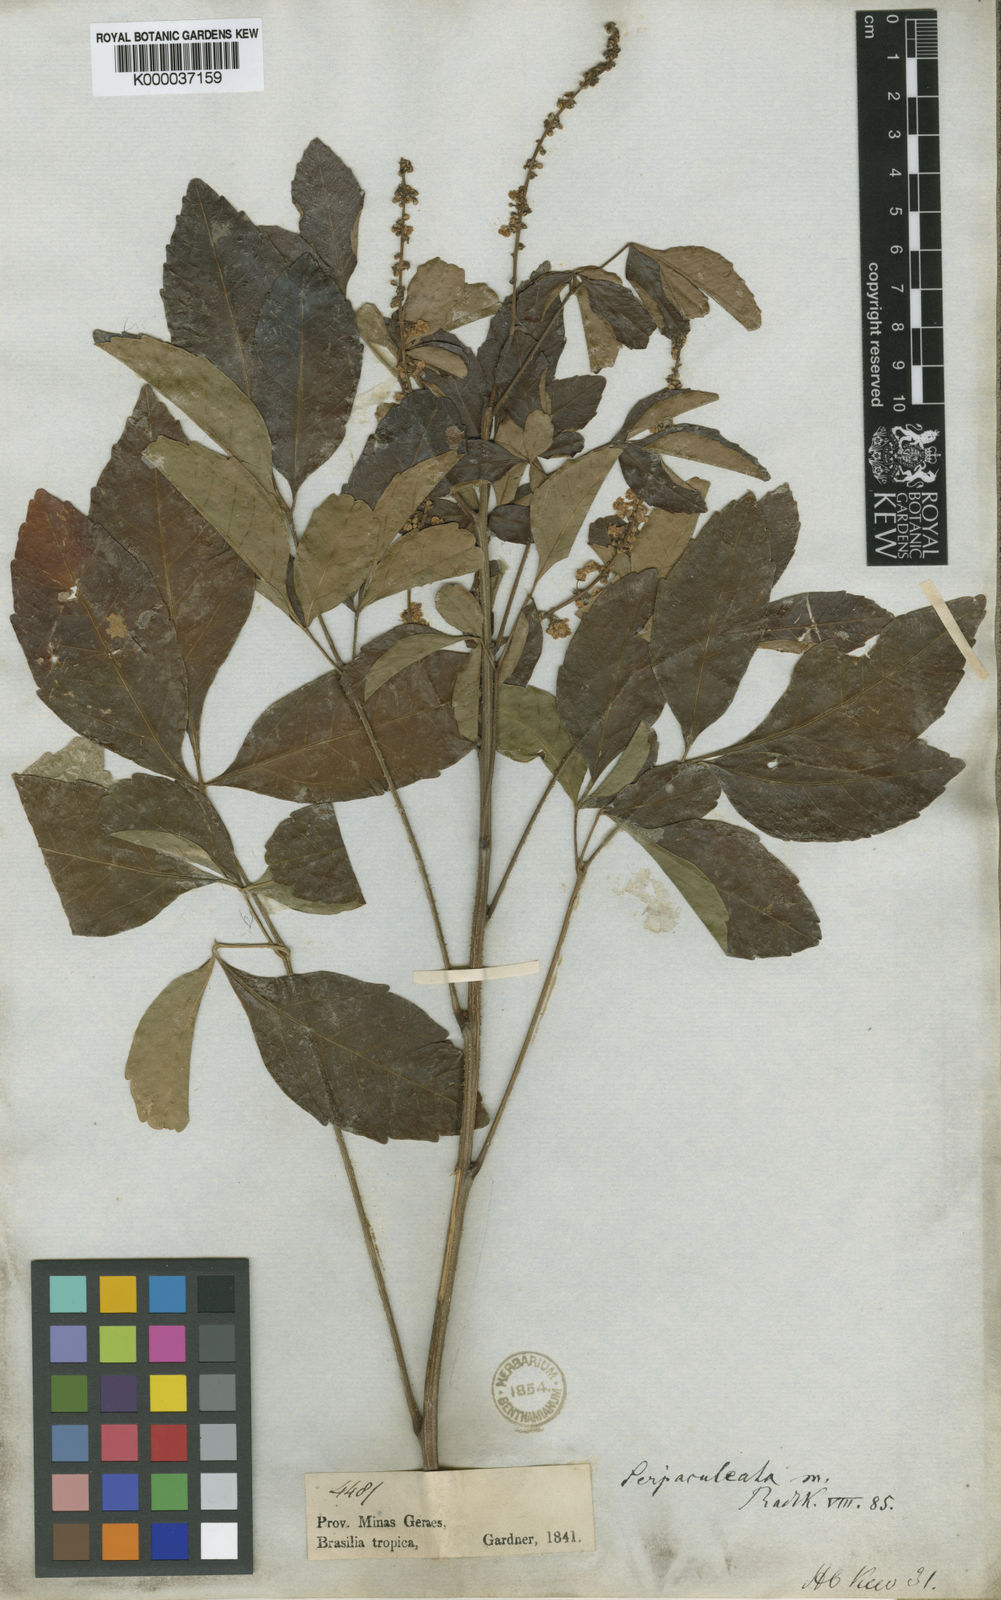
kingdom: Plantae
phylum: Tracheophyta
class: Magnoliopsida
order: Sapindales
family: Sapindaceae
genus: Serjania
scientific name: Serjania aculeata
